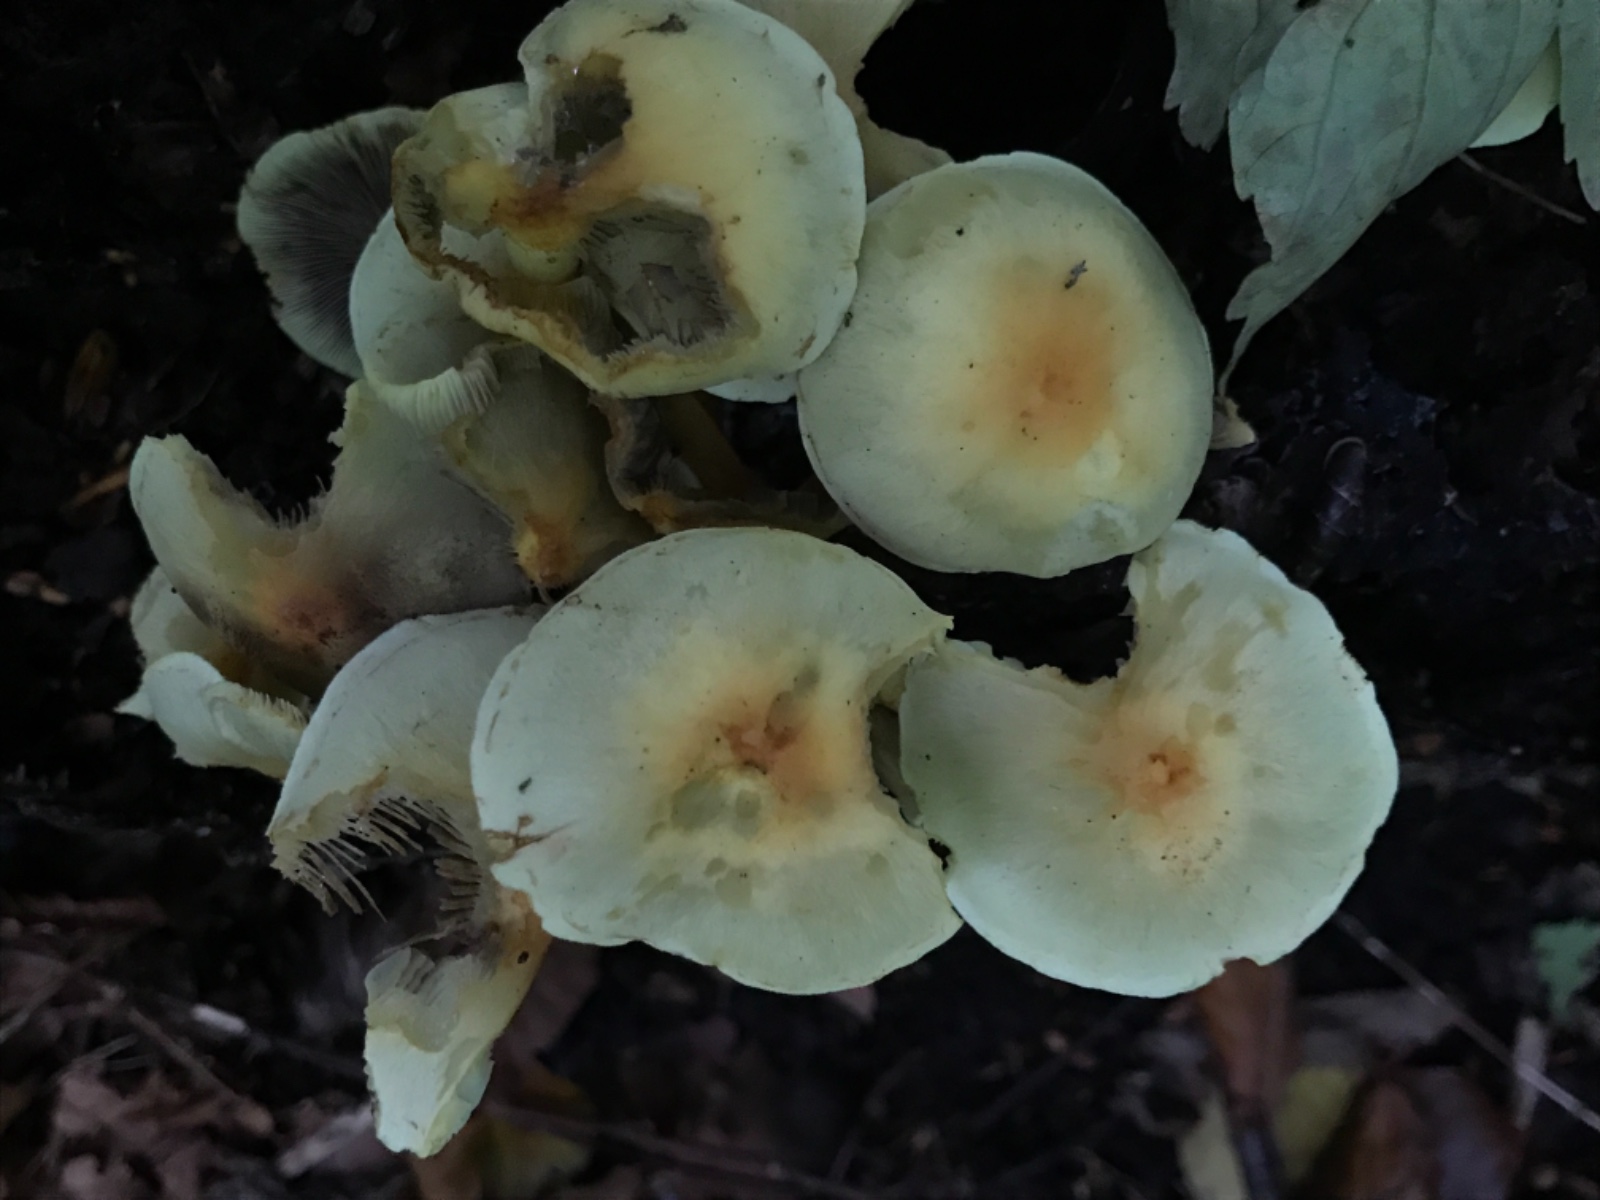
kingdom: Fungi
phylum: Basidiomycota
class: Agaricomycetes
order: Agaricales
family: Strophariaceae
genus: Hypholoma
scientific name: Hypholoma fasciculare
